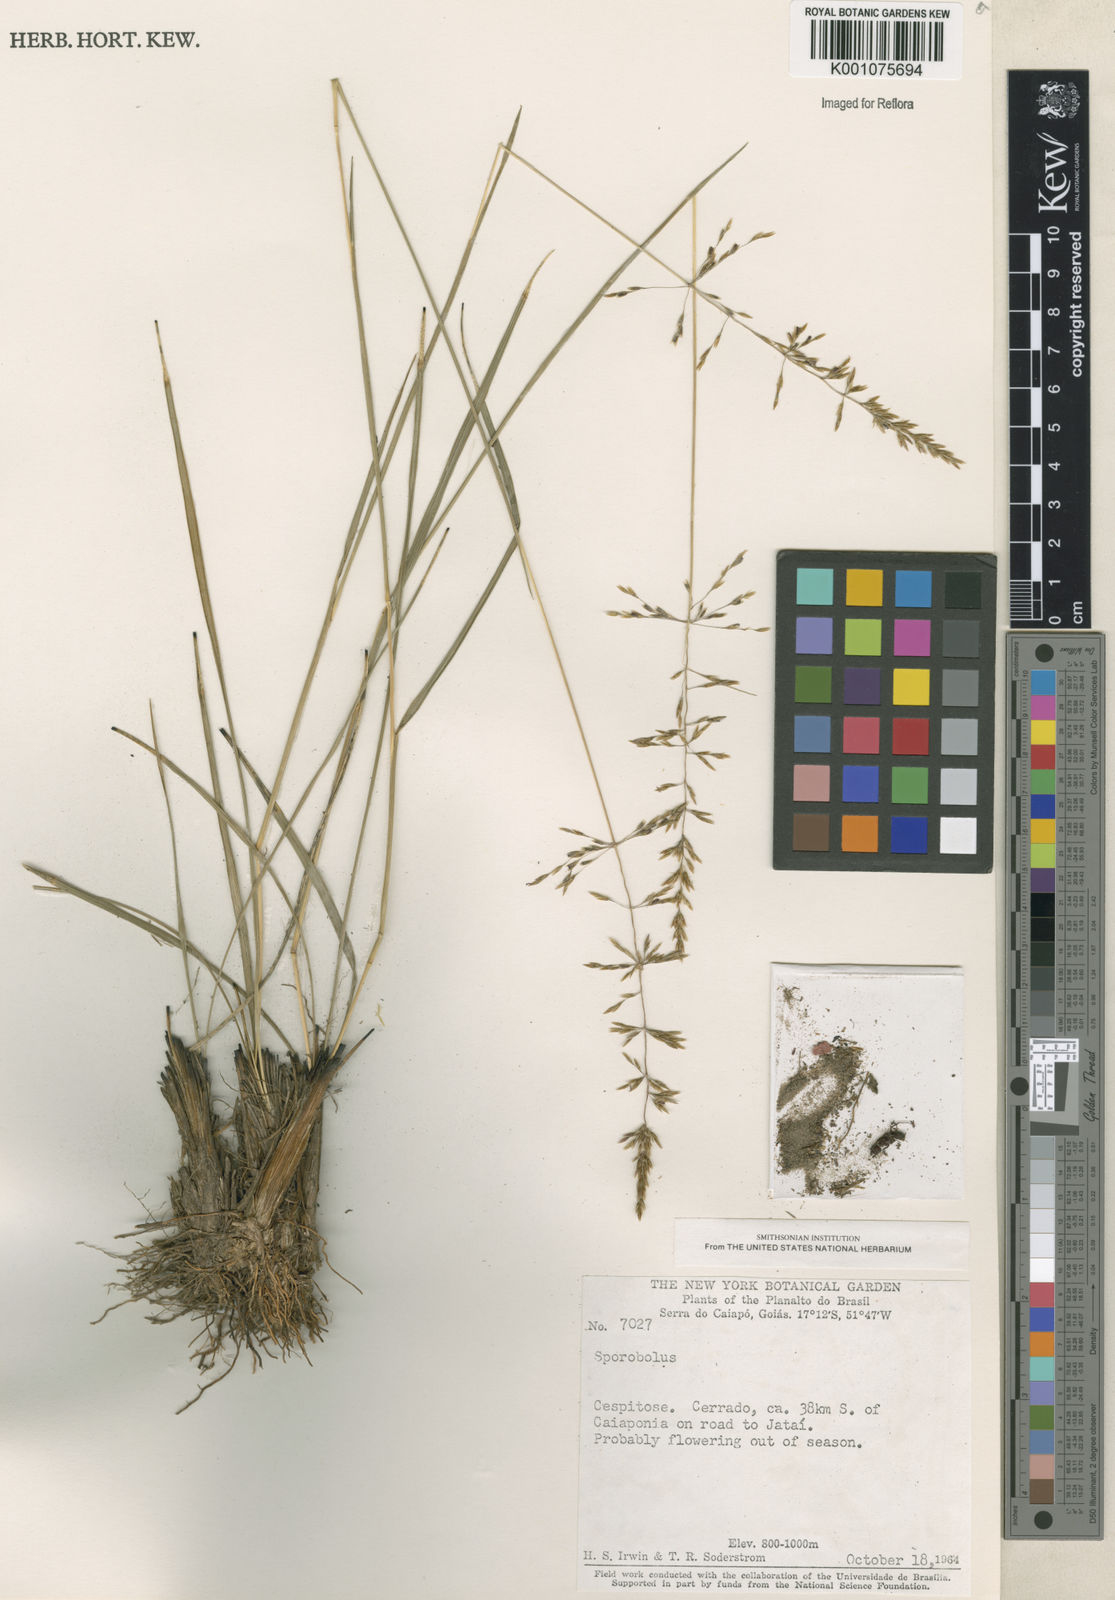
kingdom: Plantae
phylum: Tracheophyta
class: Liliopsida
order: Poales
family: Poaceae
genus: Sporobolus
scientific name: Sporobolus cubensis
